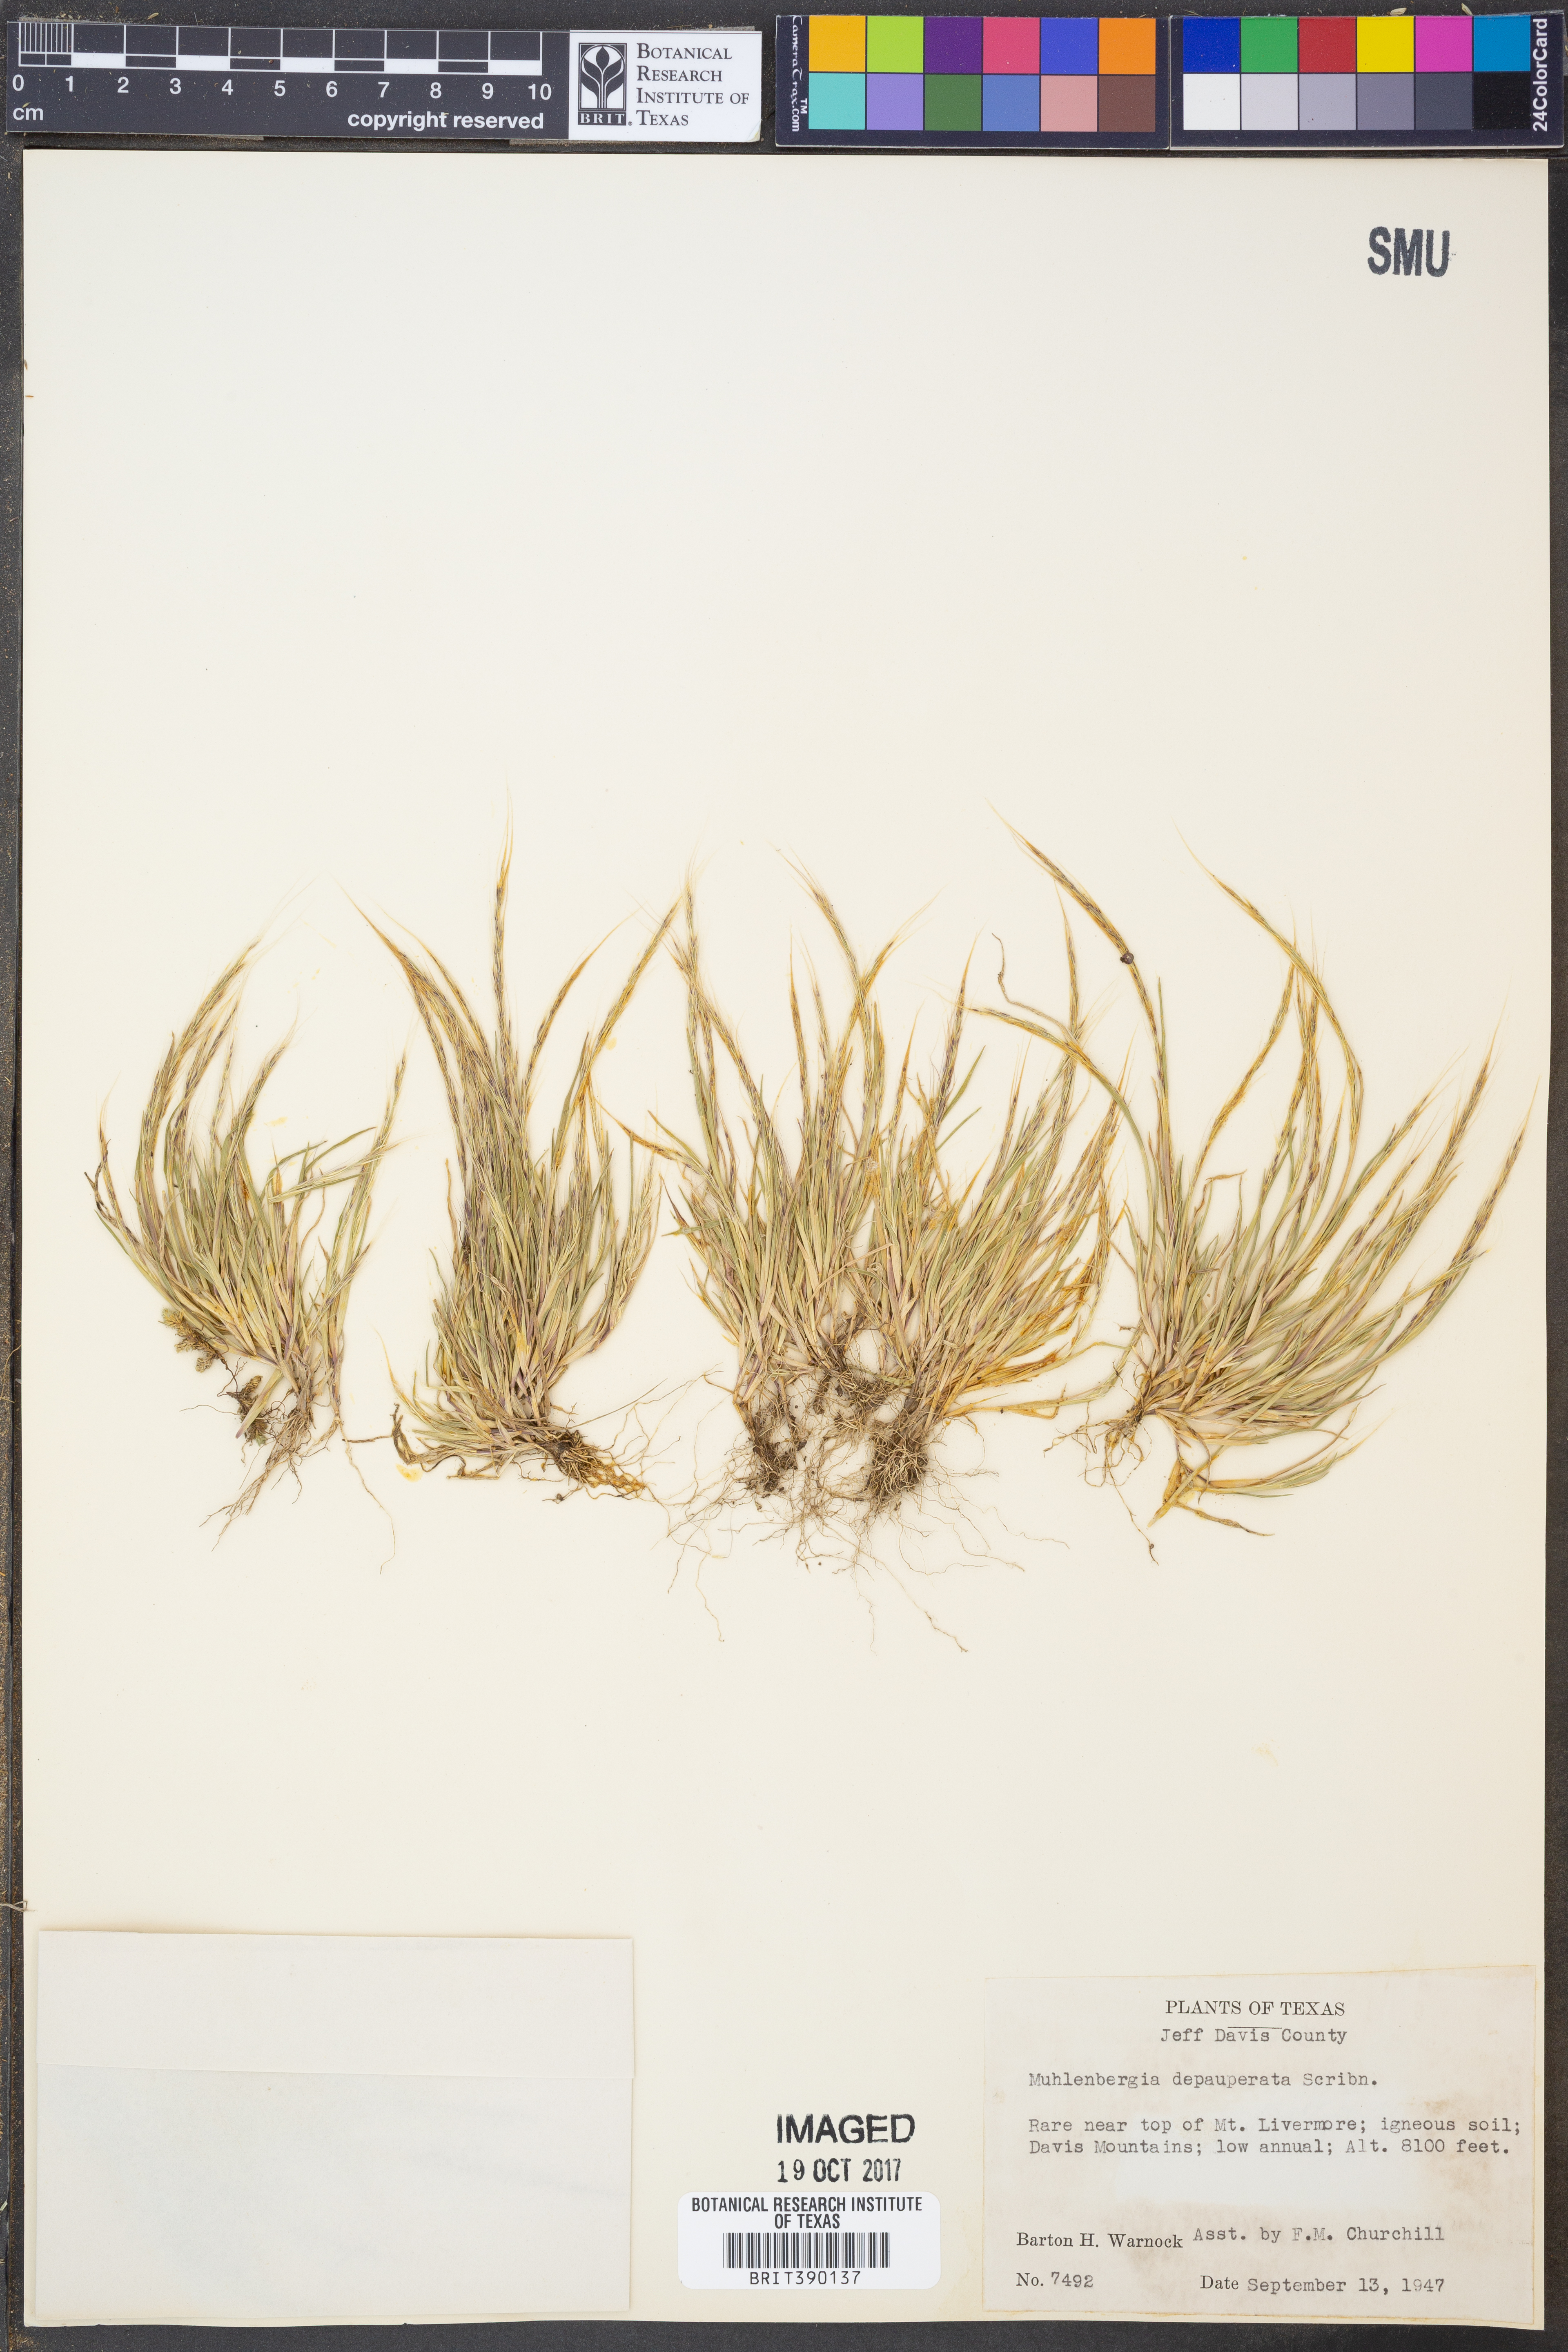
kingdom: Plantae
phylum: Tracheophyta
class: Liliopsida
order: Poales
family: Poaceae
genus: Muhlenbergia
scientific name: Muhlenbergia depauperata
